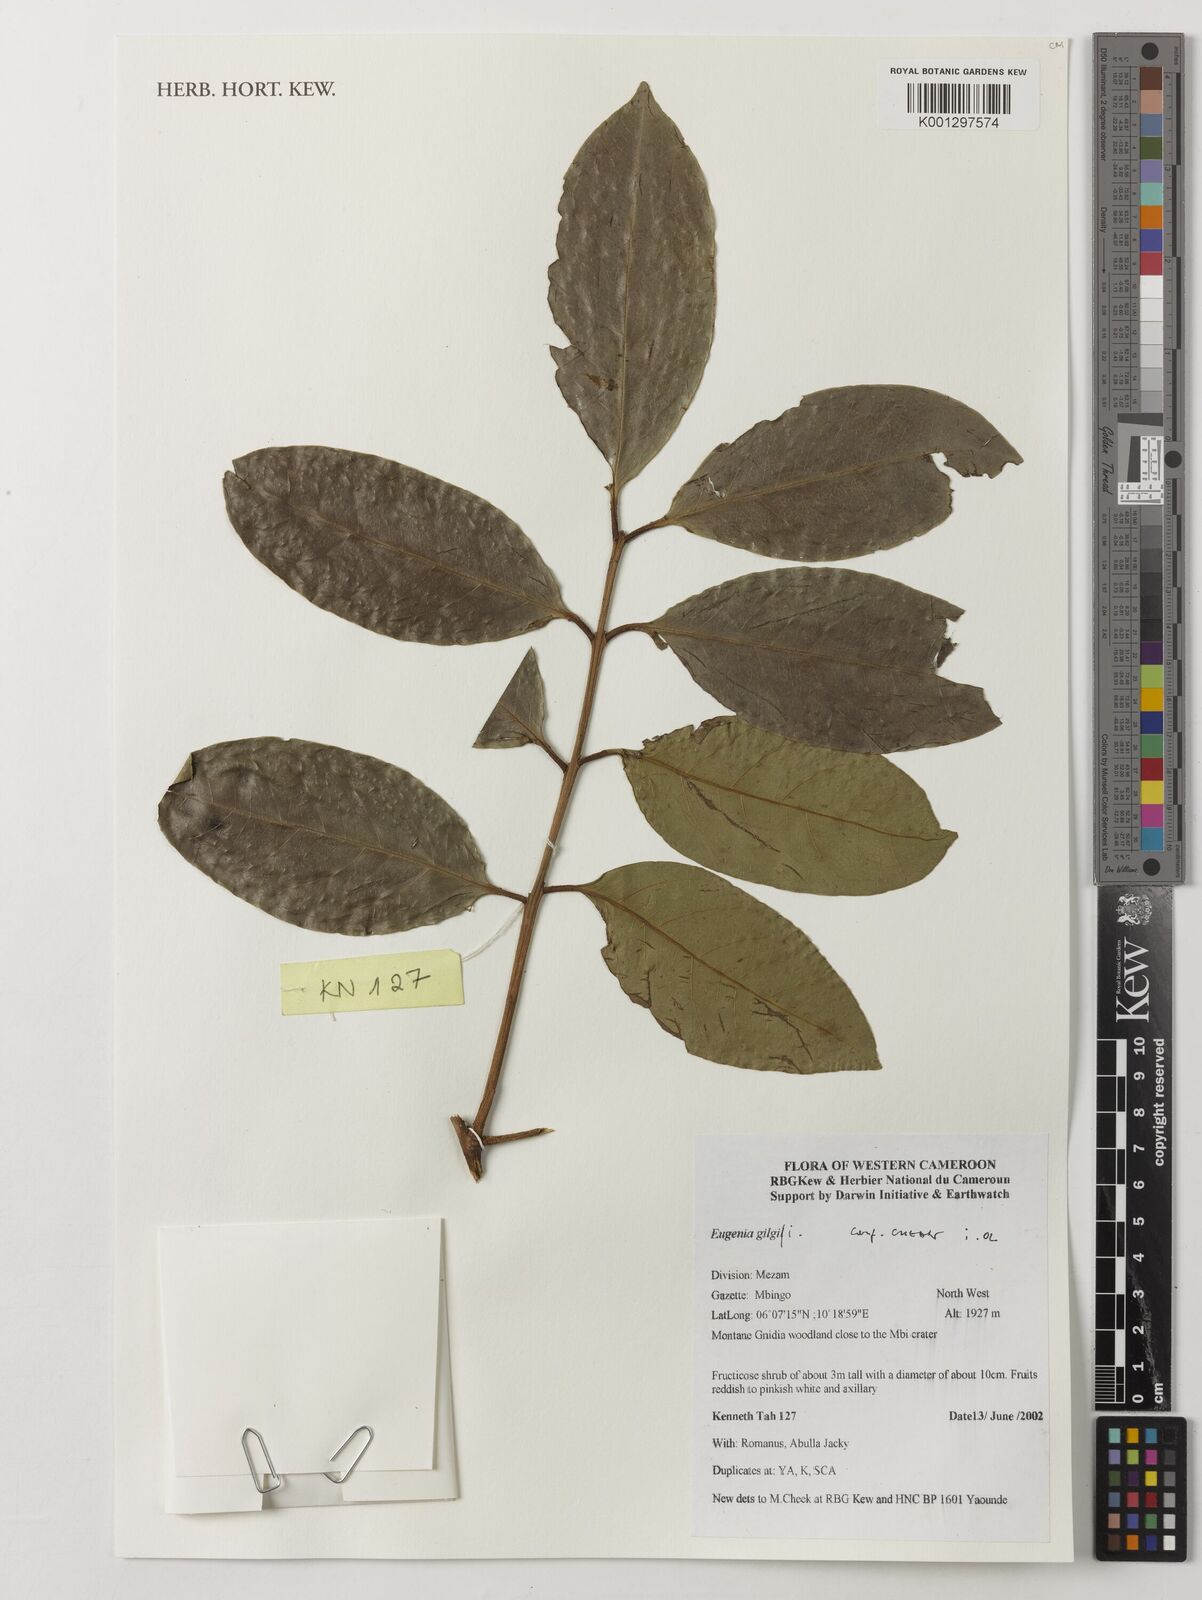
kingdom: Plantae
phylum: Tracheophyta
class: Magnoliopsida
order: Myrtales
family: Myrtaceae
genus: Eugenia
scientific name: Eugenia gilgii
